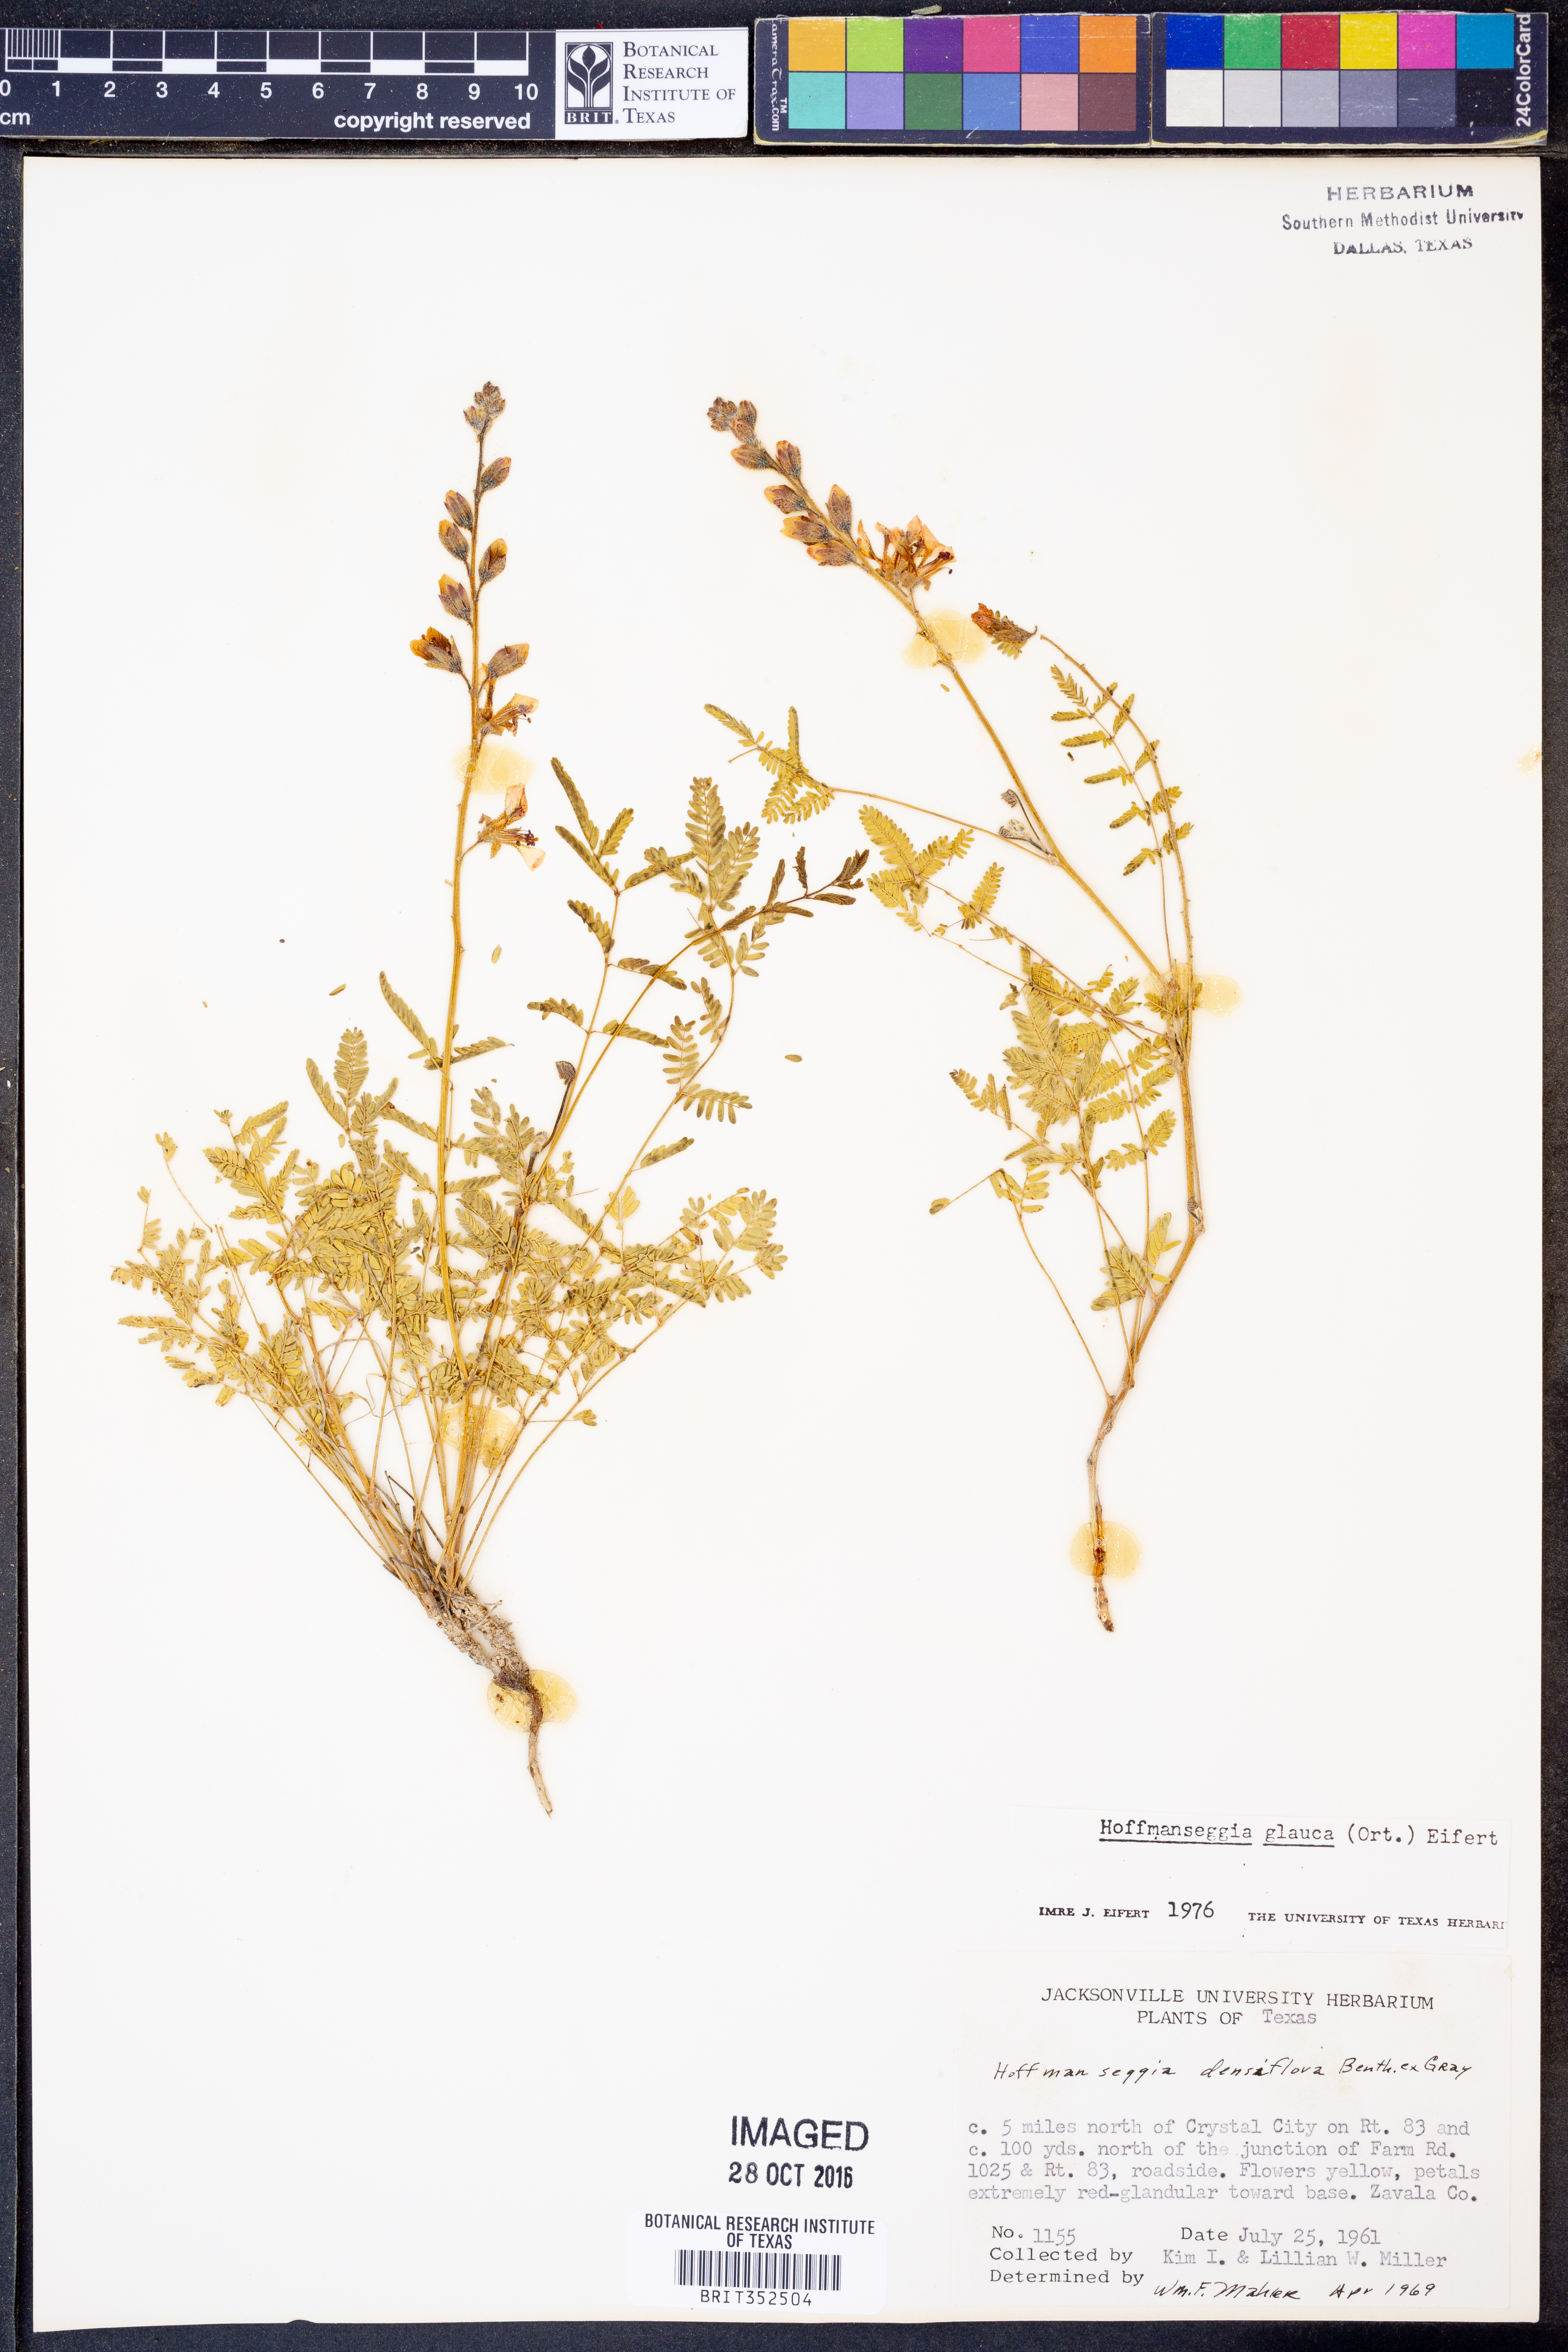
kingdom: Plantae
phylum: Tracheophyta
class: Magnoliopsida
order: Fabales
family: Fabaceae
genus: Hoffmannseggia
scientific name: Hoffmannseggia glauca
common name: Pignut
